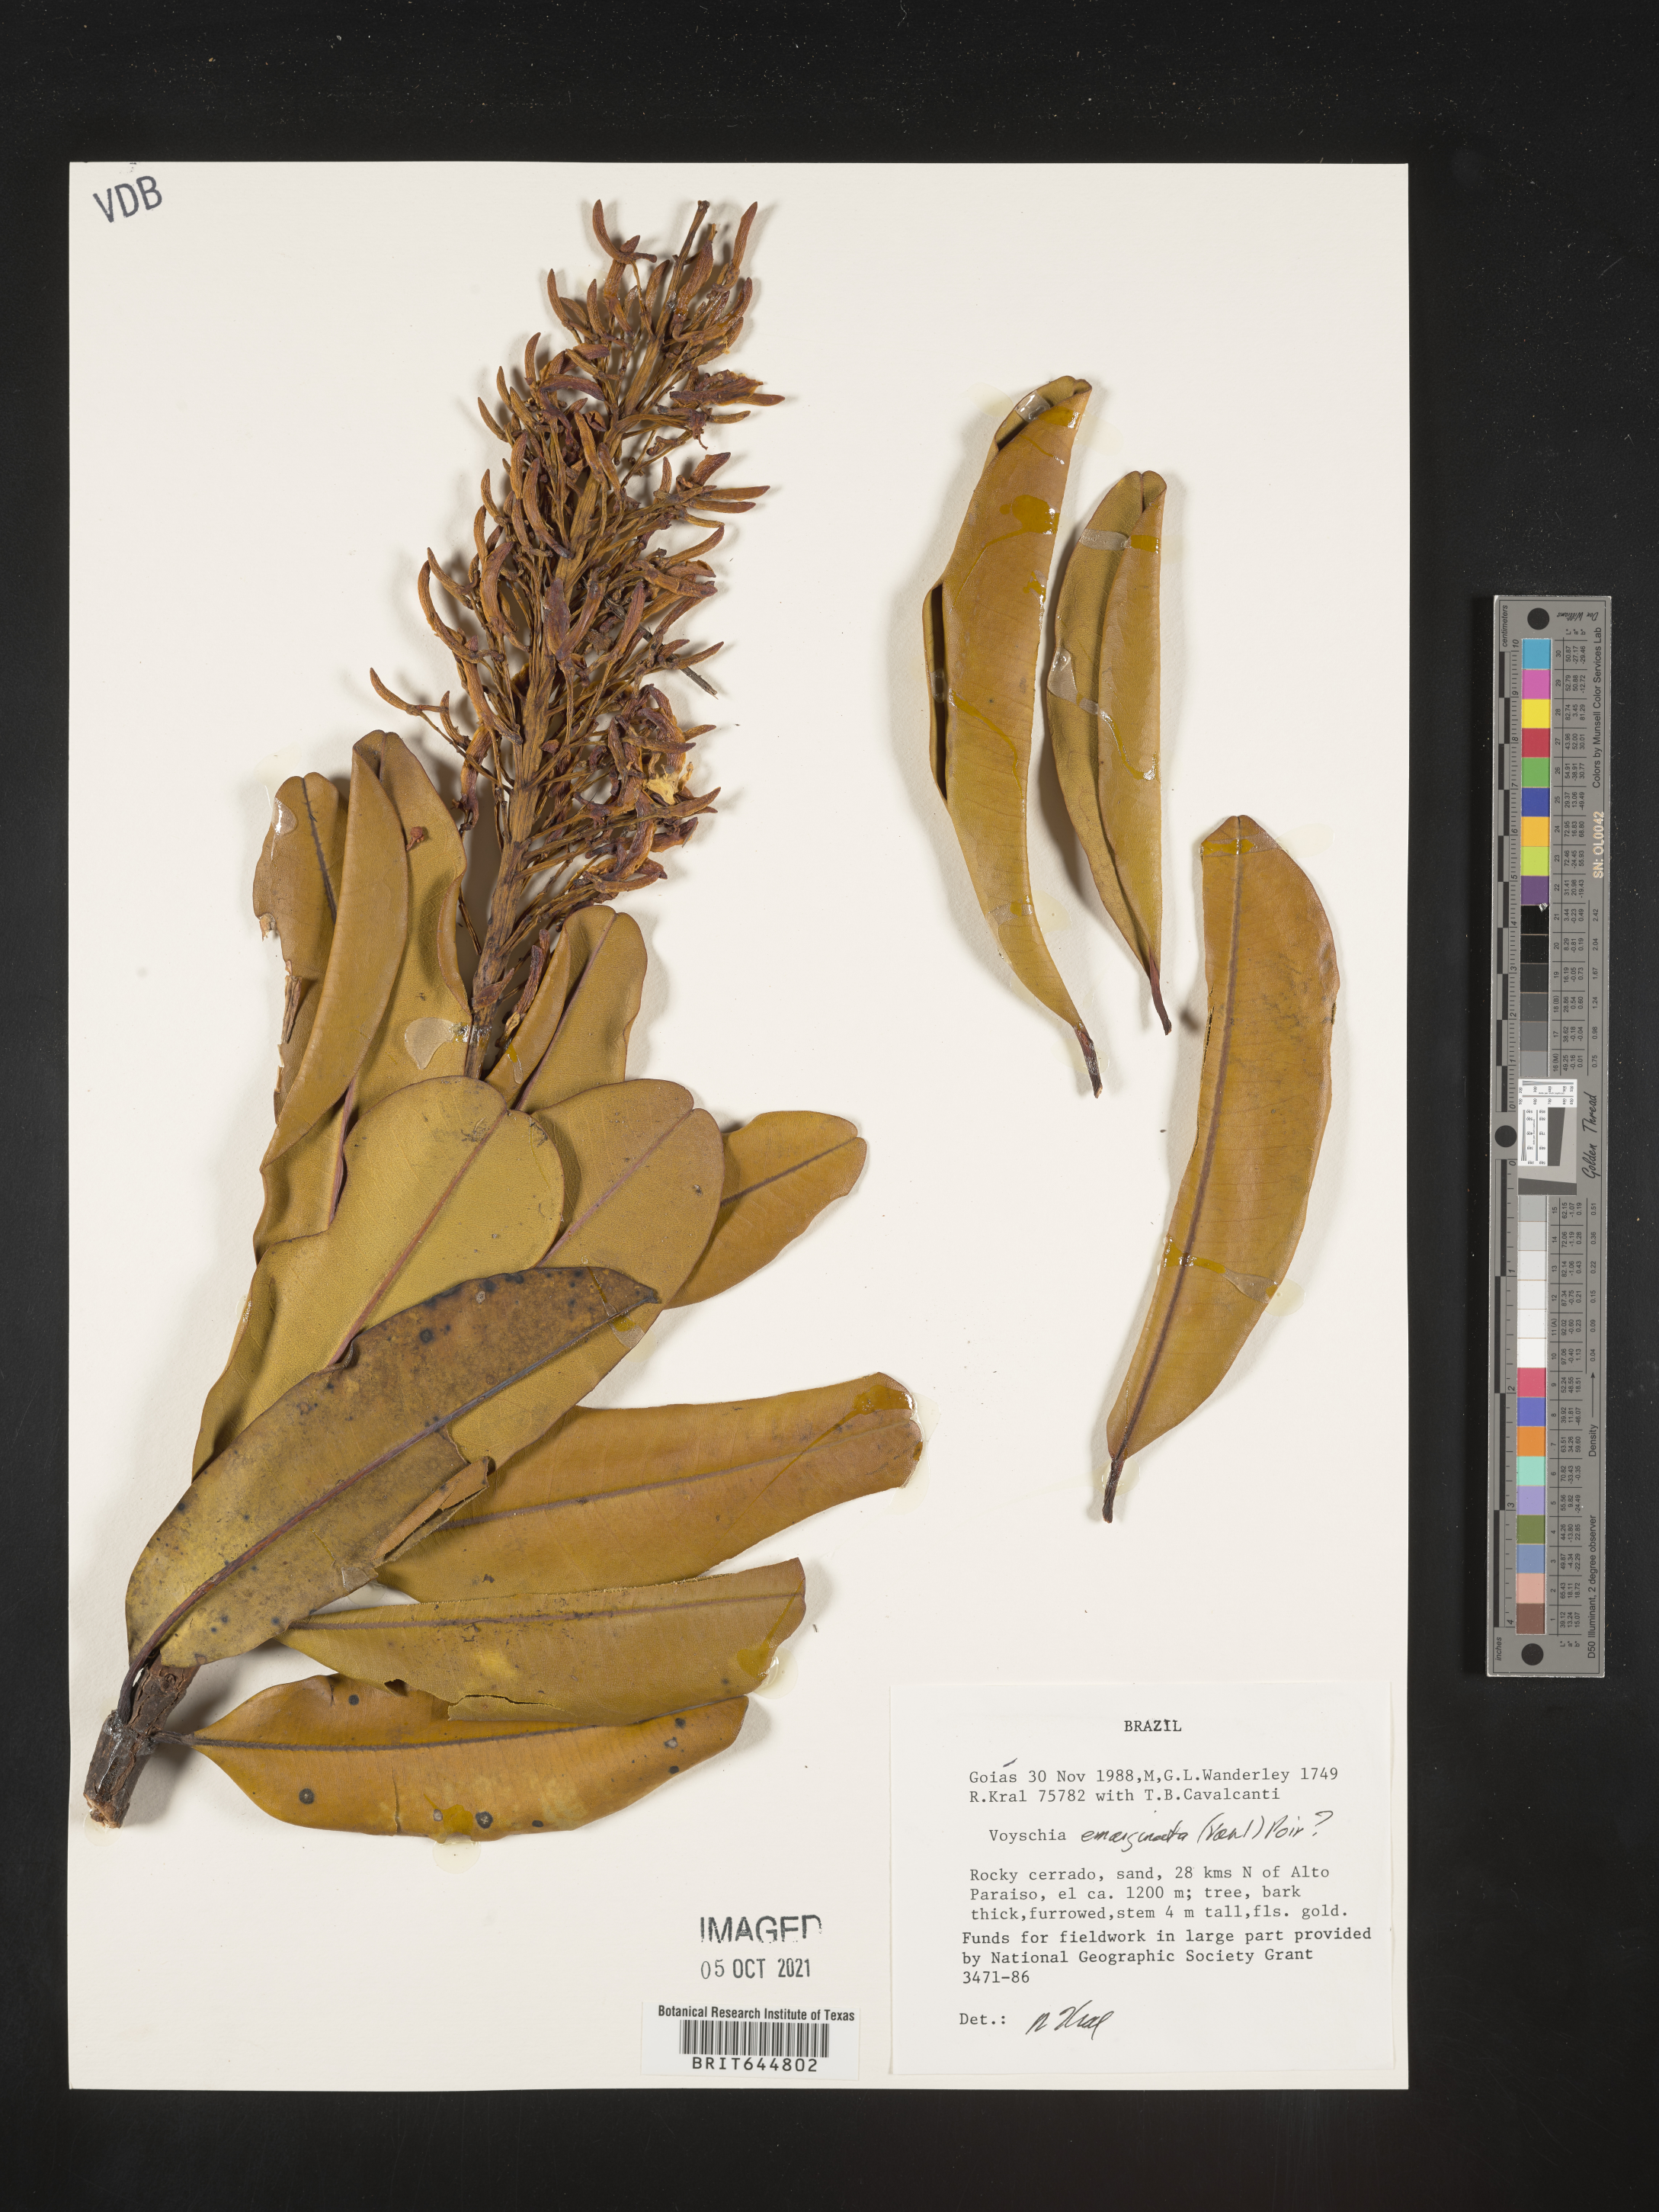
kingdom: Plantae
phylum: Tracheophyta
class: Magnoliopsida
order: Myrtales
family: Vochysiaceae
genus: Vochysia
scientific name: Vochysia
